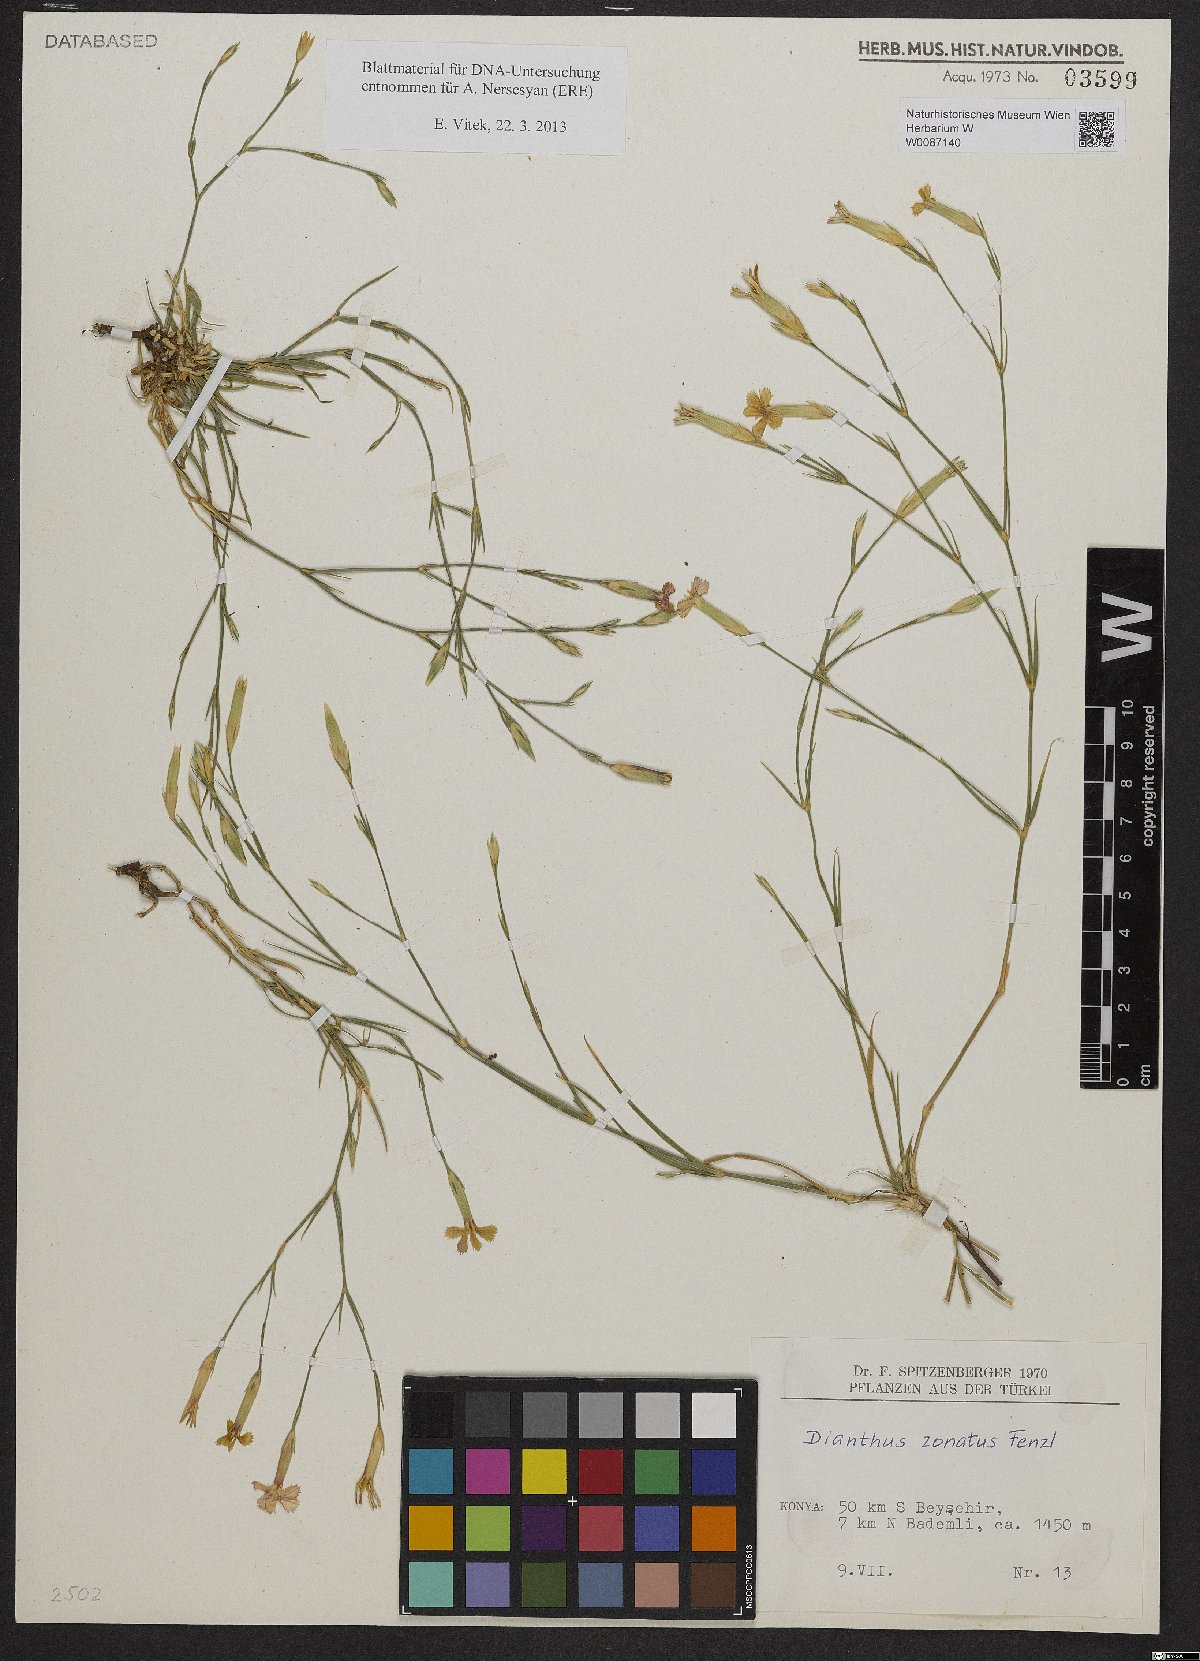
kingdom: Plantae
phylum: Tracheophyta
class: Magnoliopsida
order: Caryophyllales
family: Caryophyllaceae
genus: Dianthus
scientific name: Dianthus zonatus
